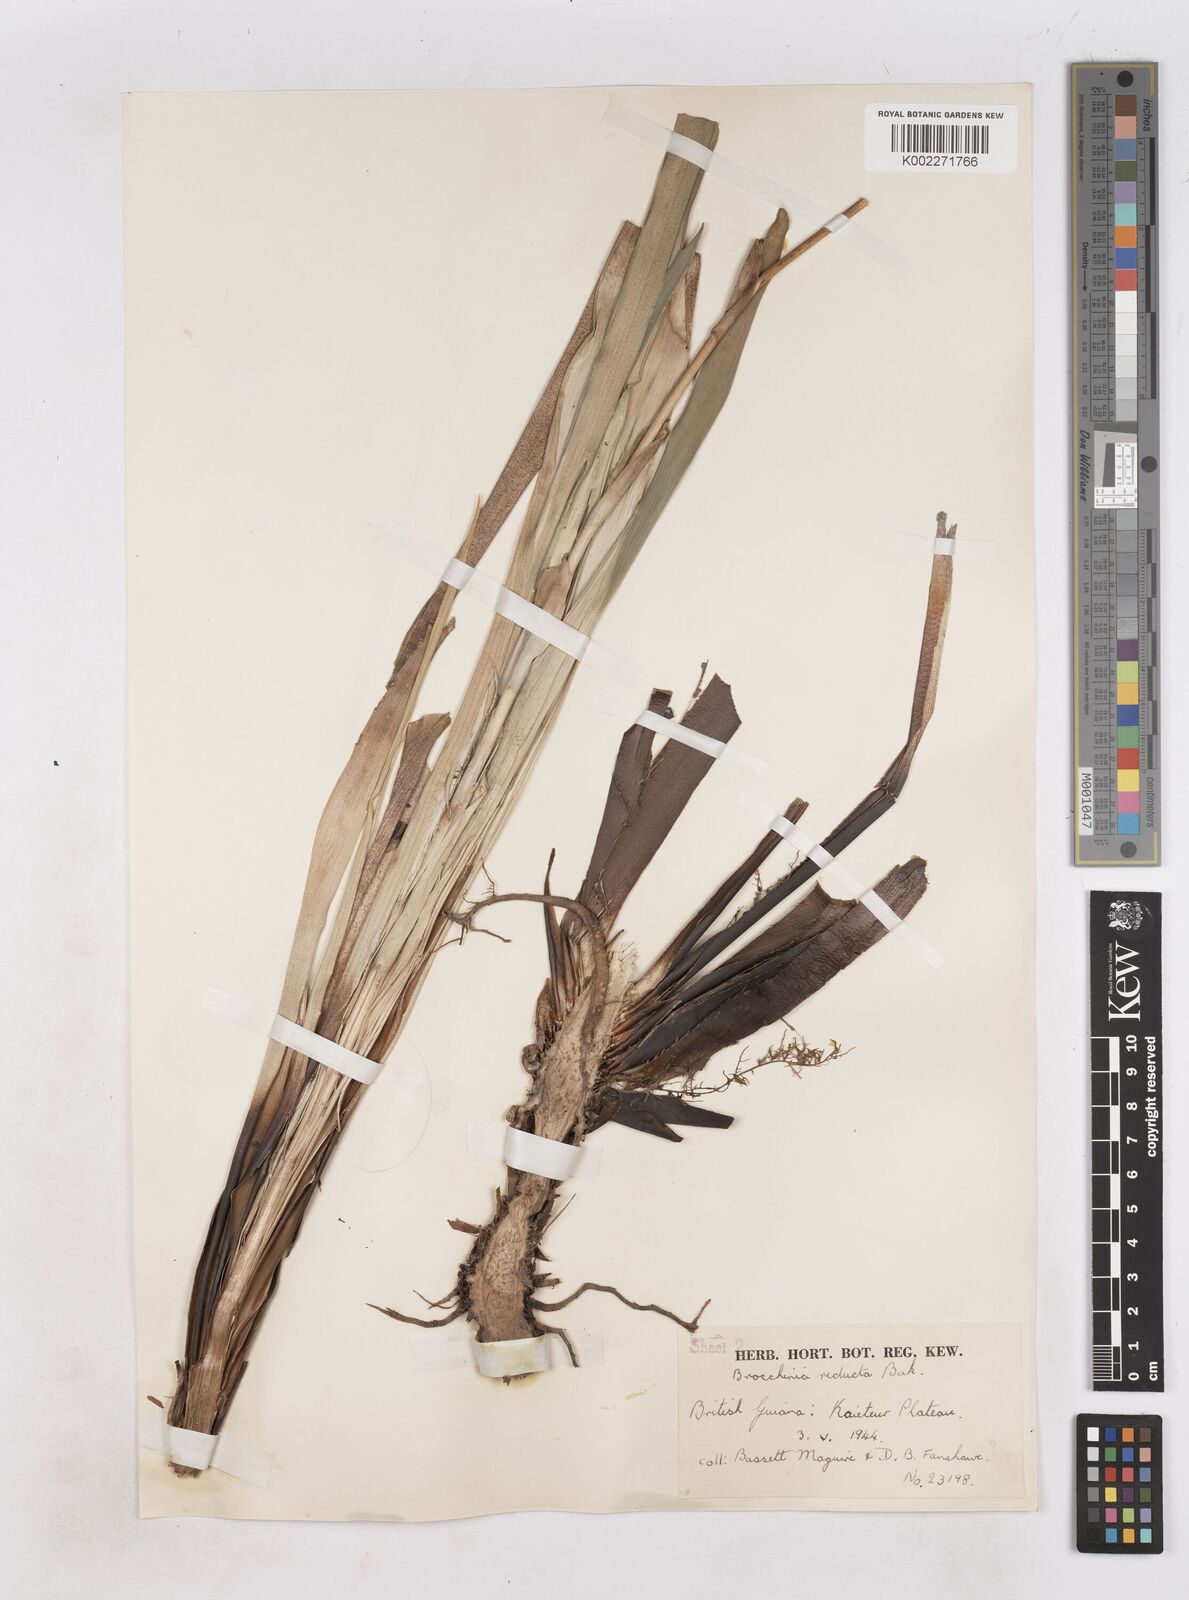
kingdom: Plantae
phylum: Tracheophyta
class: Liliopsida
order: Poales
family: Bromeliaceae
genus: Brocchinia
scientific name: Brocchinia reducta
